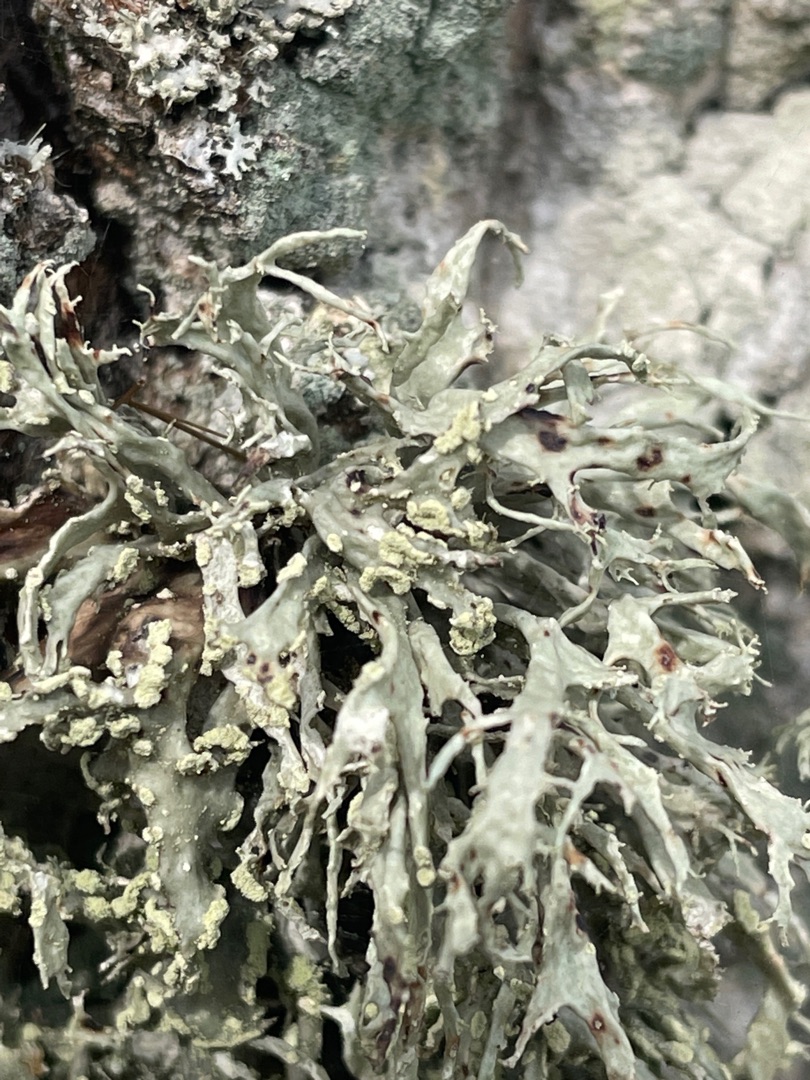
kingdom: Fungi
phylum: Ascomycota
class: Lecanoromycetes
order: Lecanorales
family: Ramalinaceae
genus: Ramalina
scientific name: Ramalina farinacea
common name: Melet grenlav
